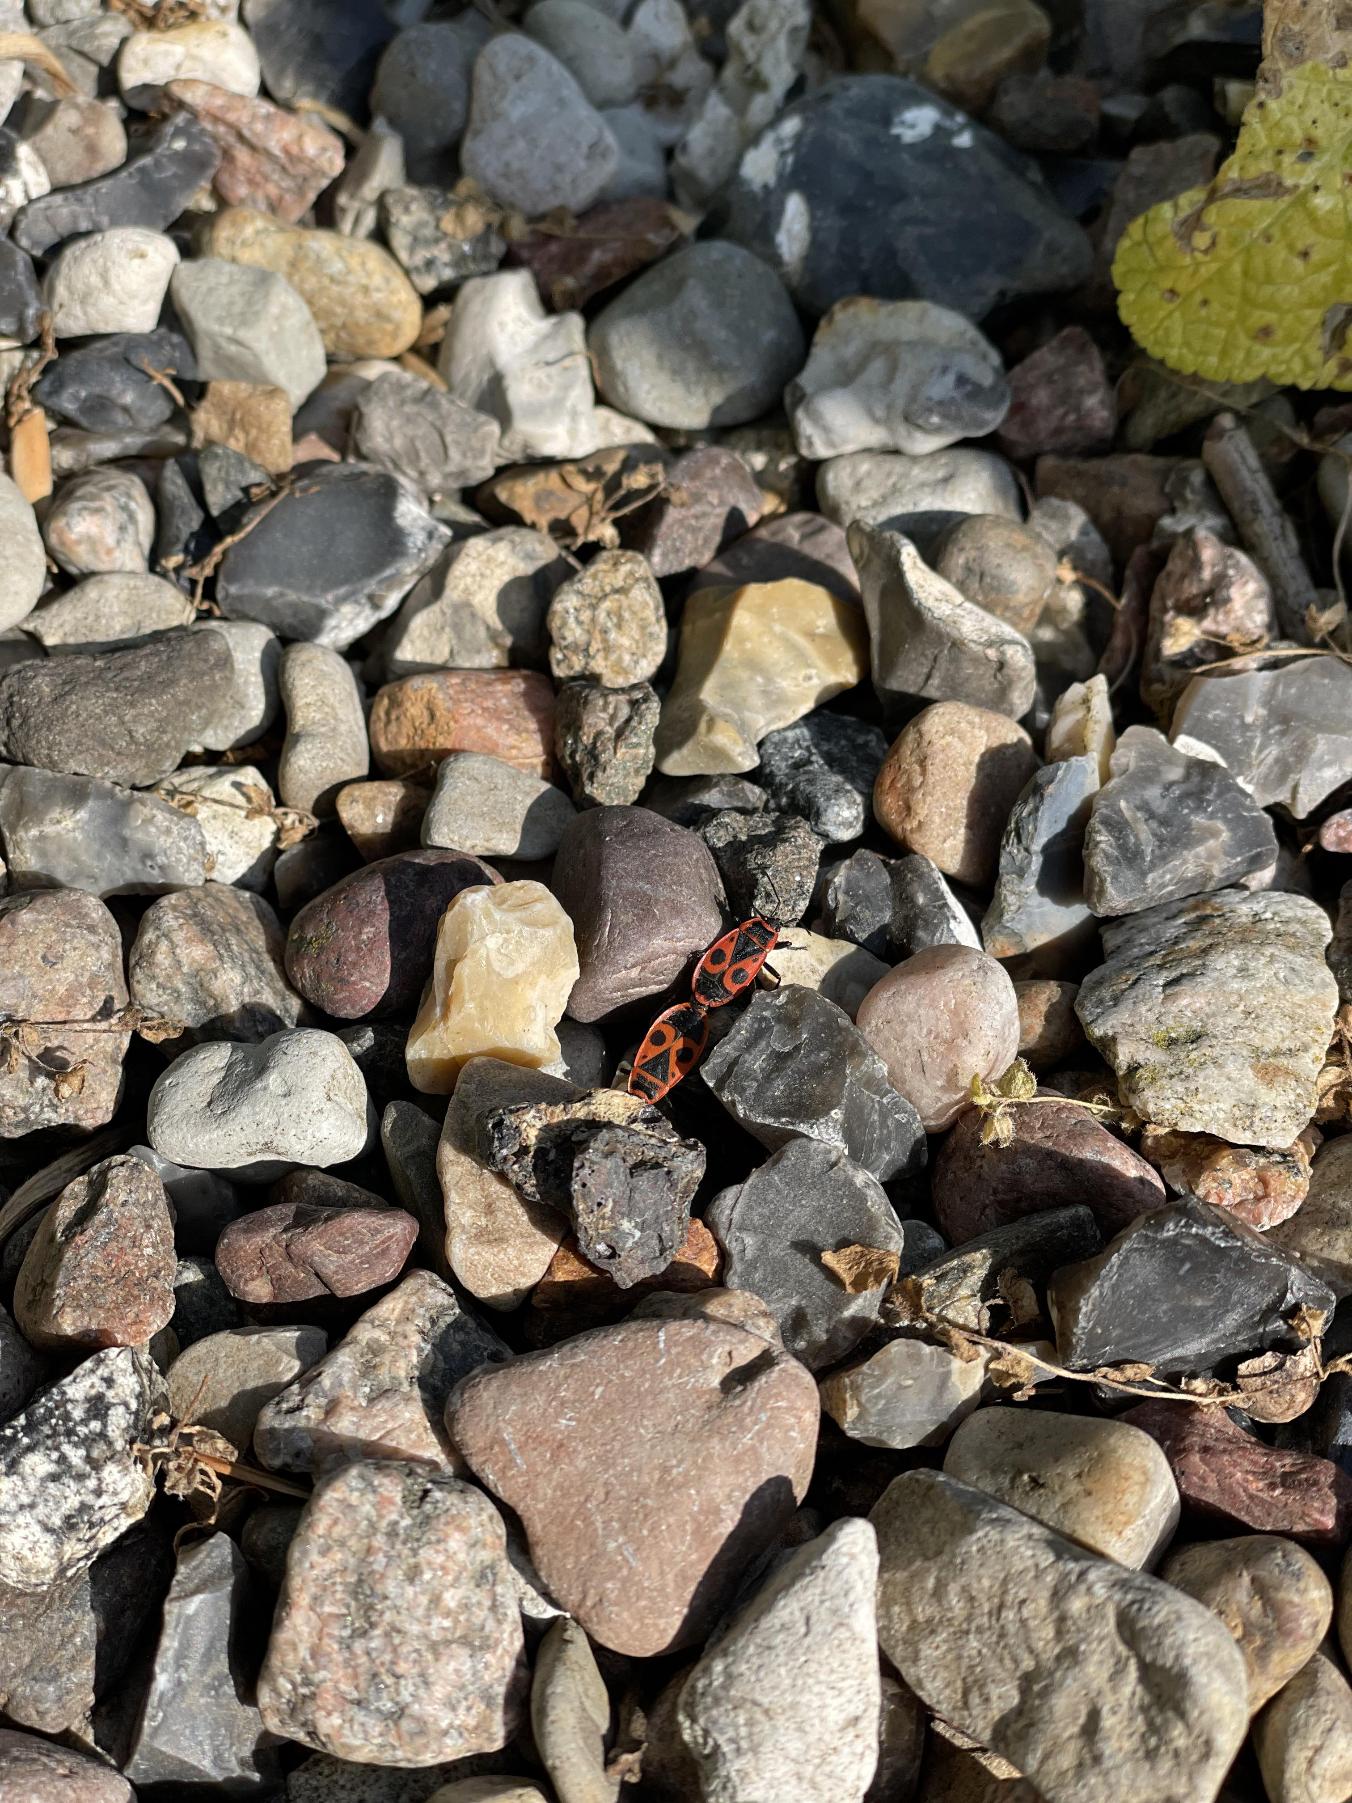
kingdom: Animalia
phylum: Arthropoda
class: Insecta
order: Hemiptera
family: Pyrrhocoridae
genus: Pyrrhocoris
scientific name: Pyrrhocoris apterus
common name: Ildtæge
